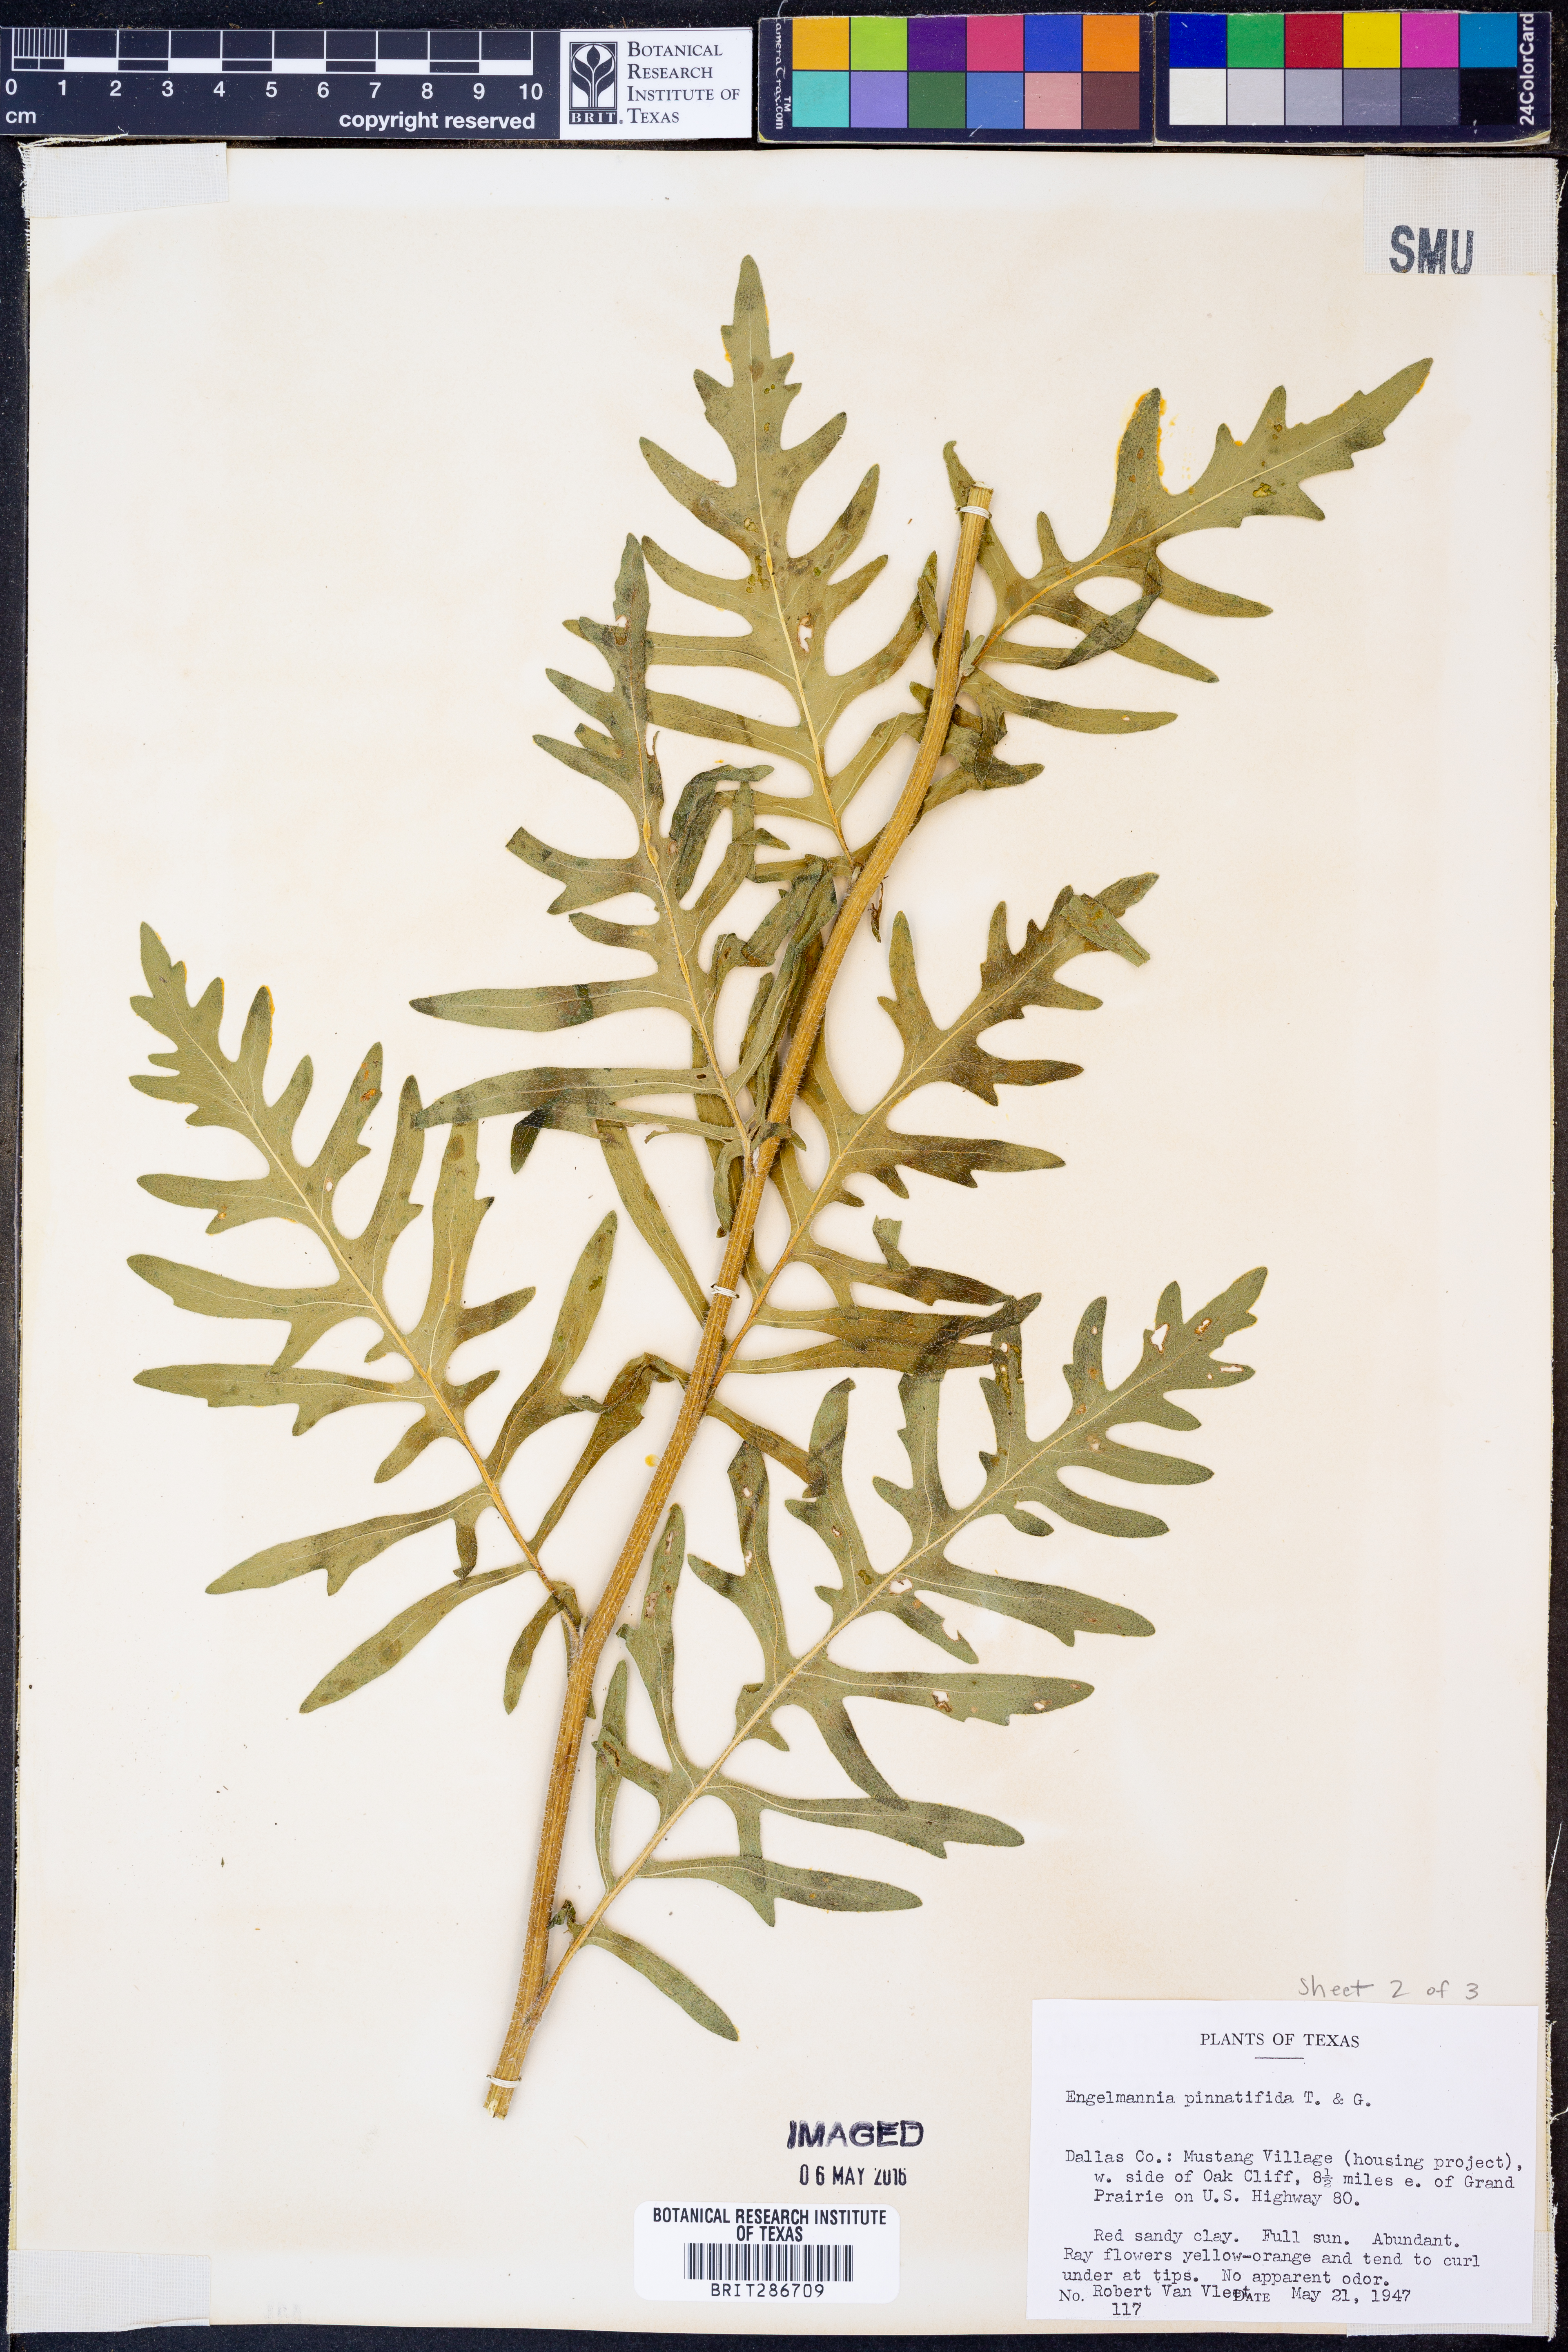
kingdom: Plantae
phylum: Tracheophyta
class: Magnoliopsida
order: Asterales
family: Asteraceae
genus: Engelmannia
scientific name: Engelmannia peristenia
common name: Engelmann's daisy
